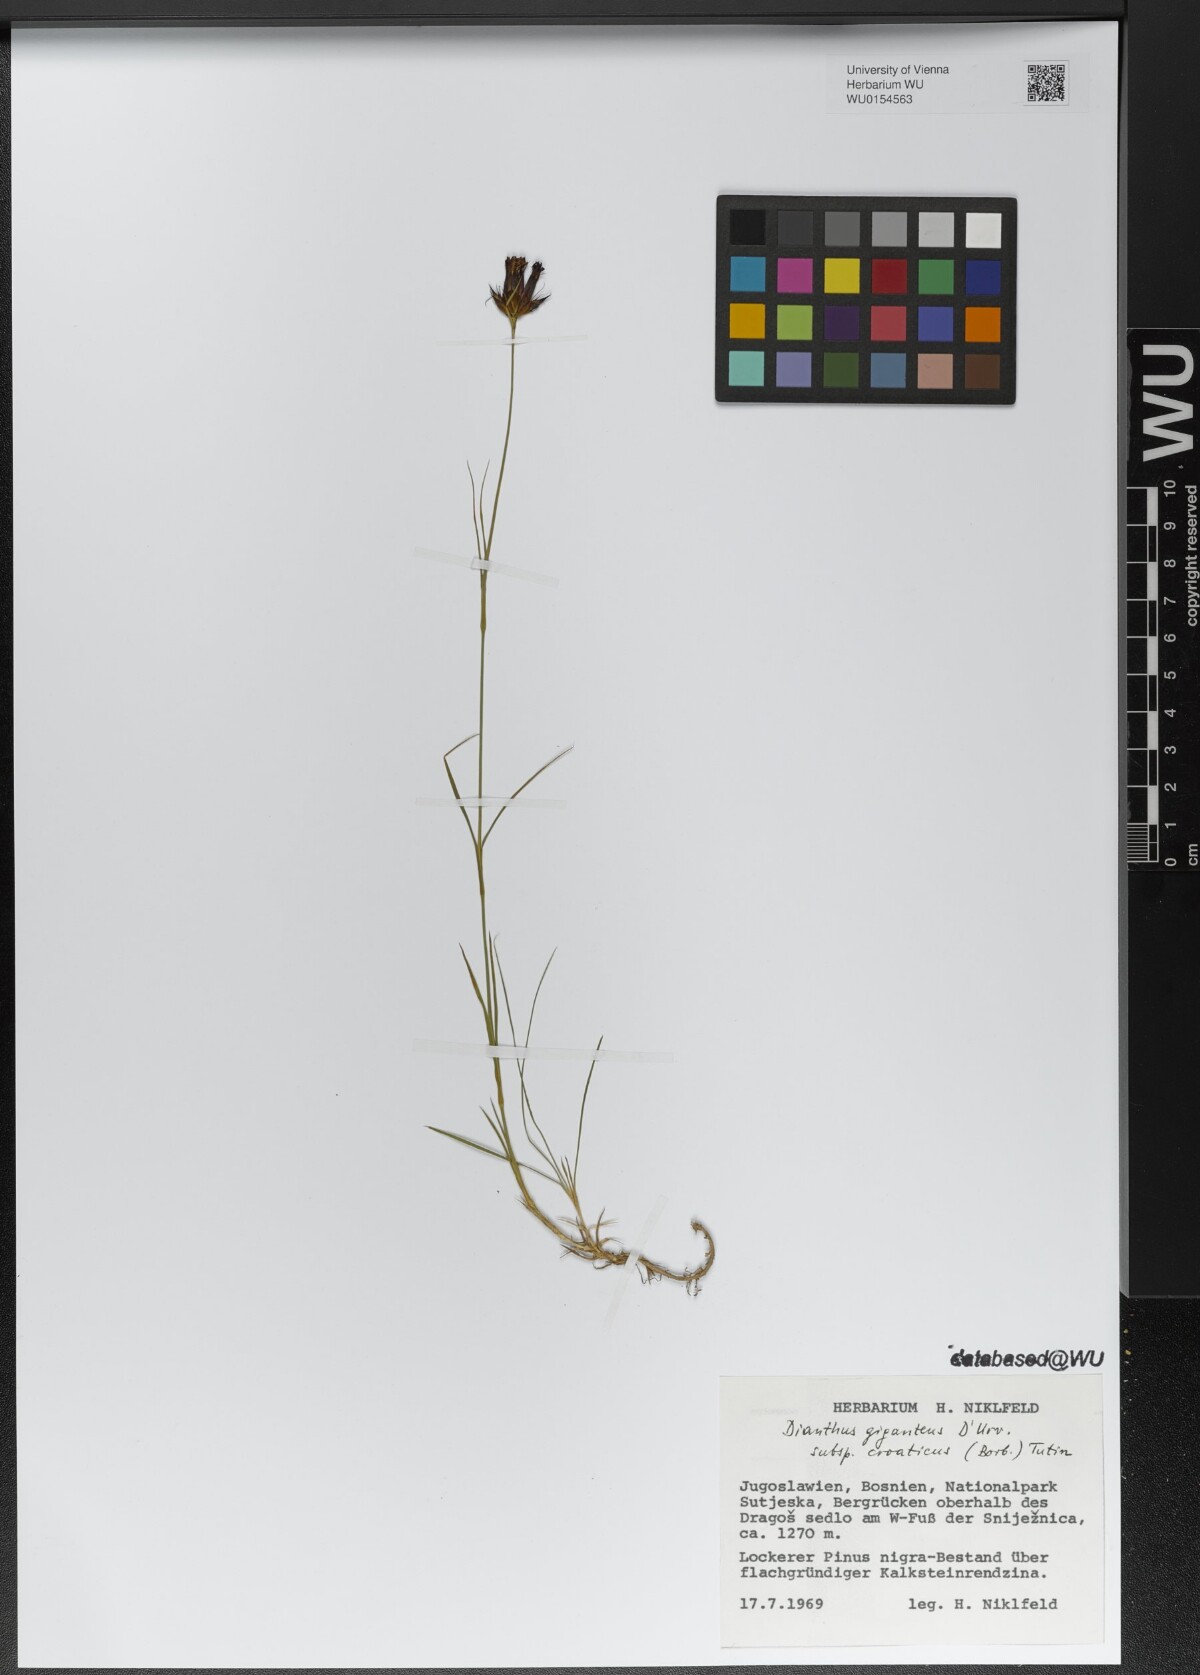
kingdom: Plantae
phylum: Tracheophyta
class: Magnoliopsida
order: Caryophyllales
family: Caryophyllaceae
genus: Dianthus
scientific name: Dianthus giganteus
